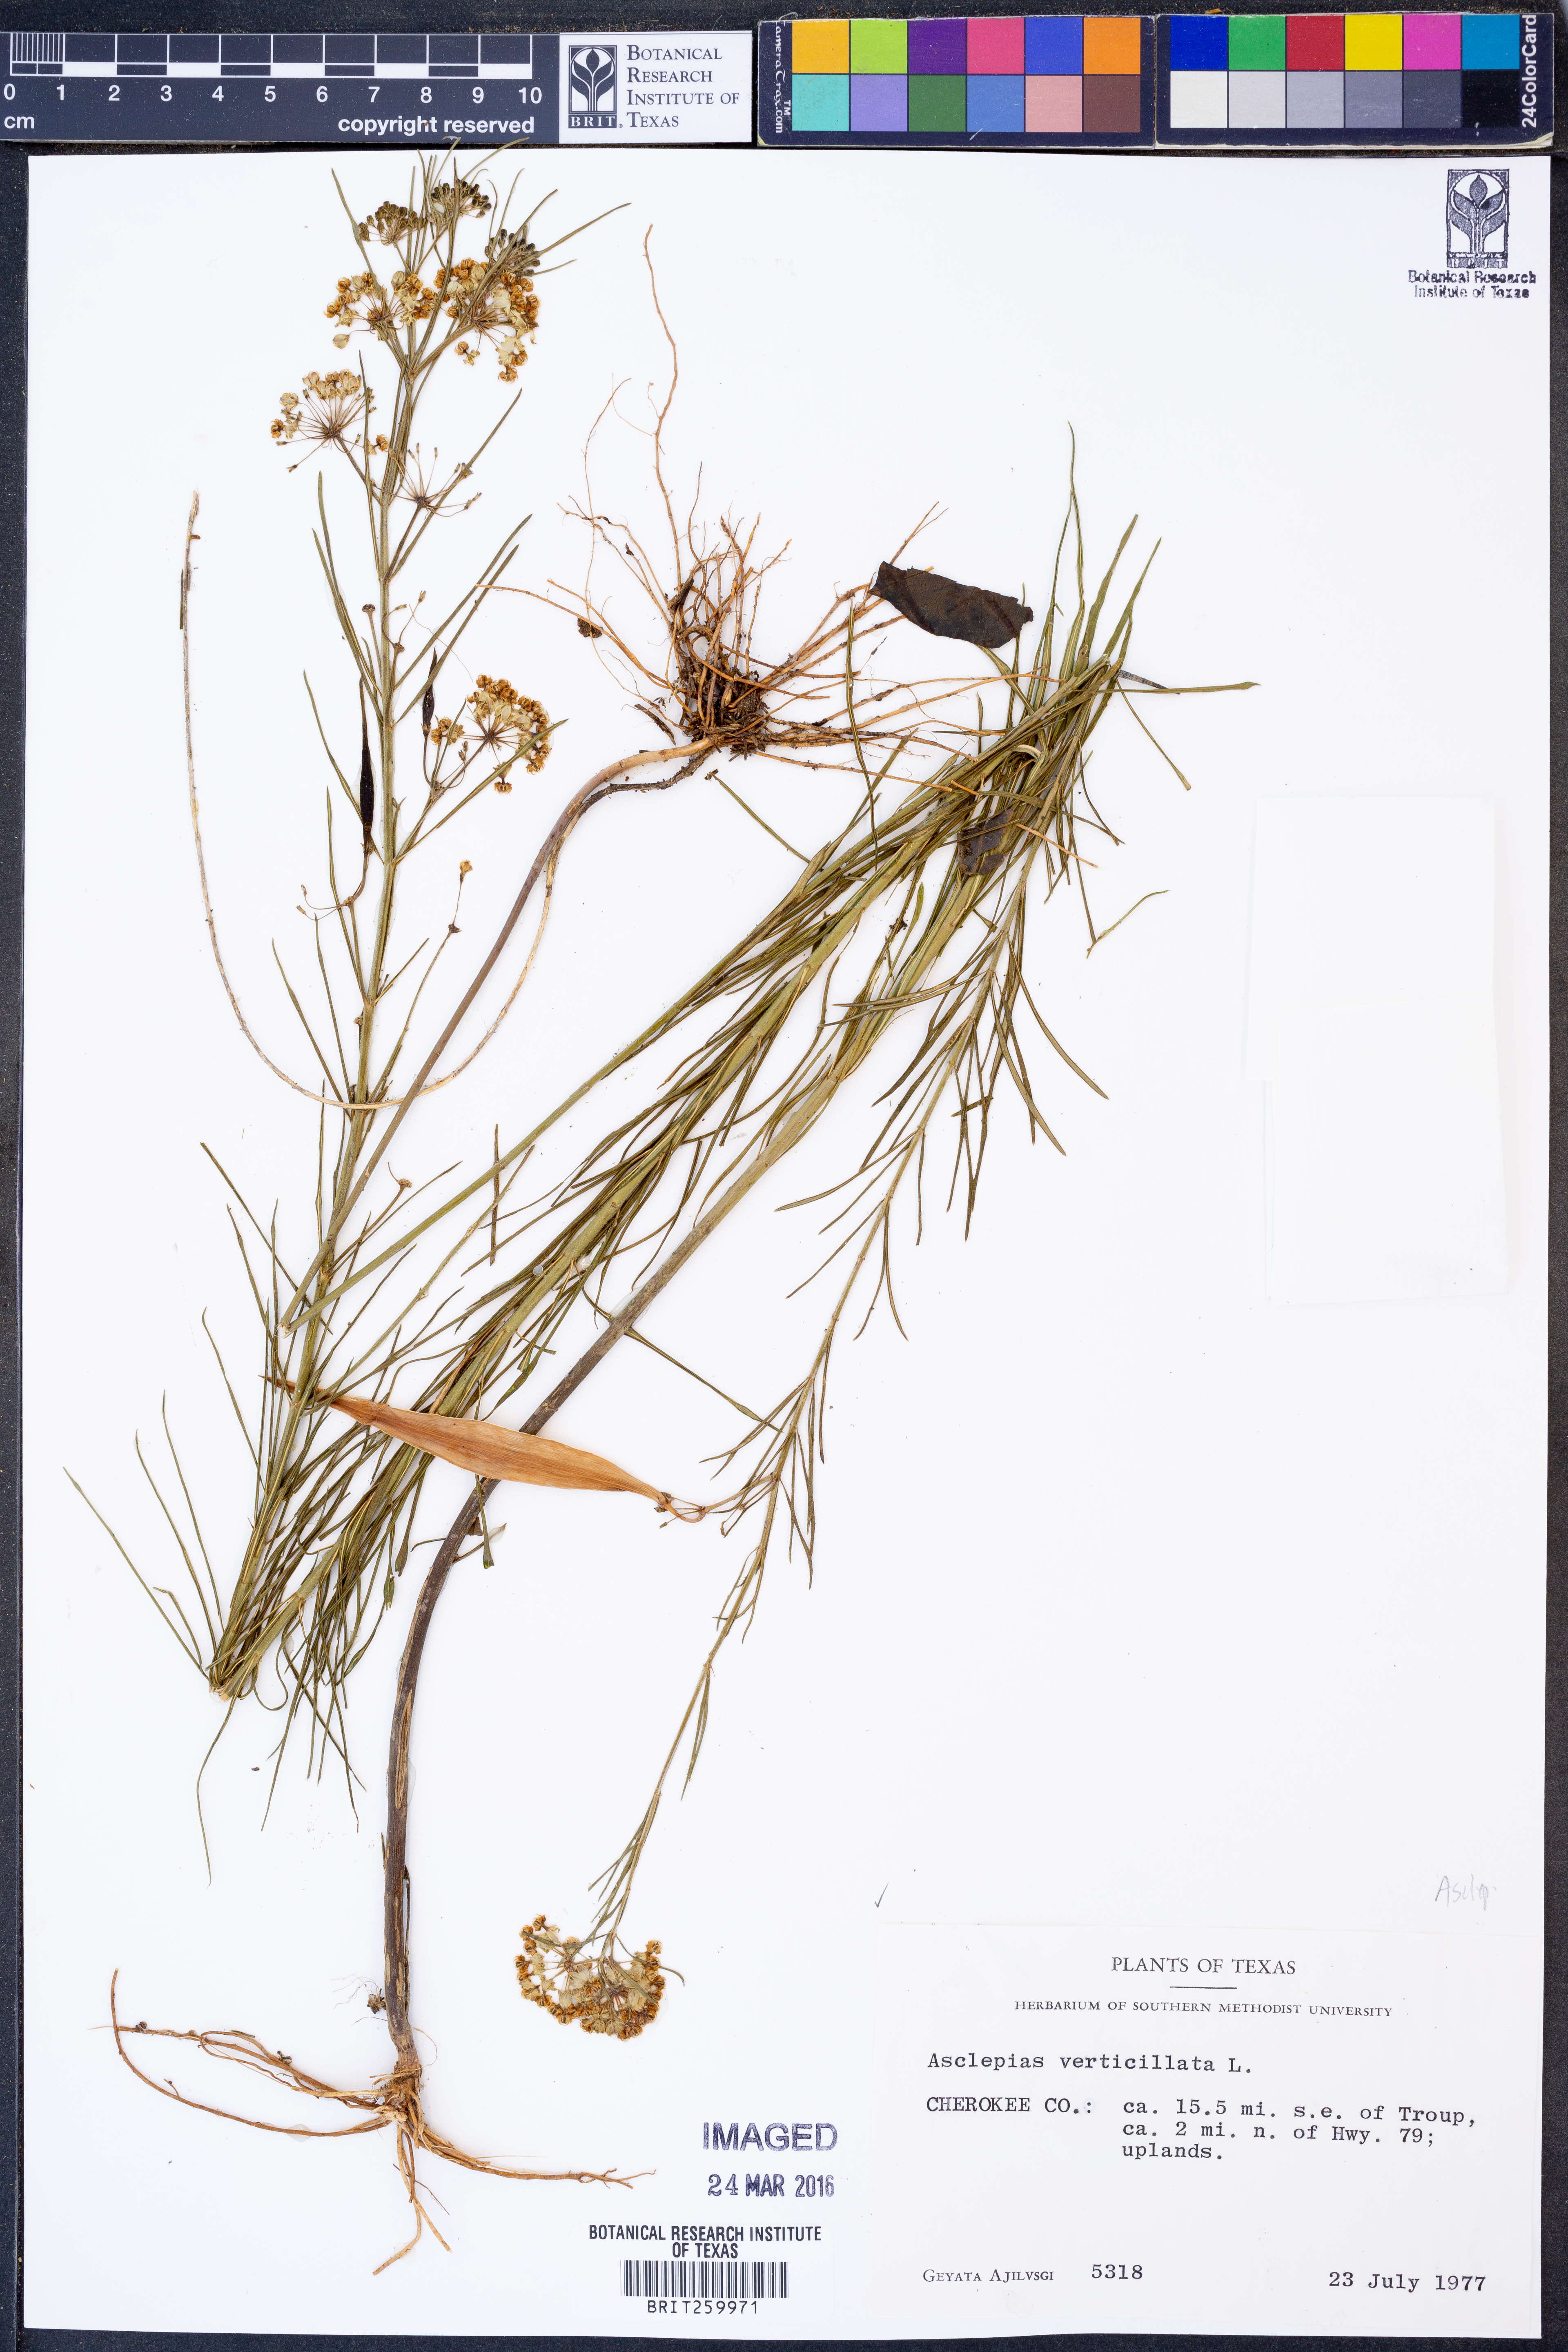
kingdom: Plantae
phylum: Tracheophyta
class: Magnoliopsida
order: Gentianales
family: Apocynaceae
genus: Asclepias
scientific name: Asclepias verticillata
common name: Eastern whorled milkweed
